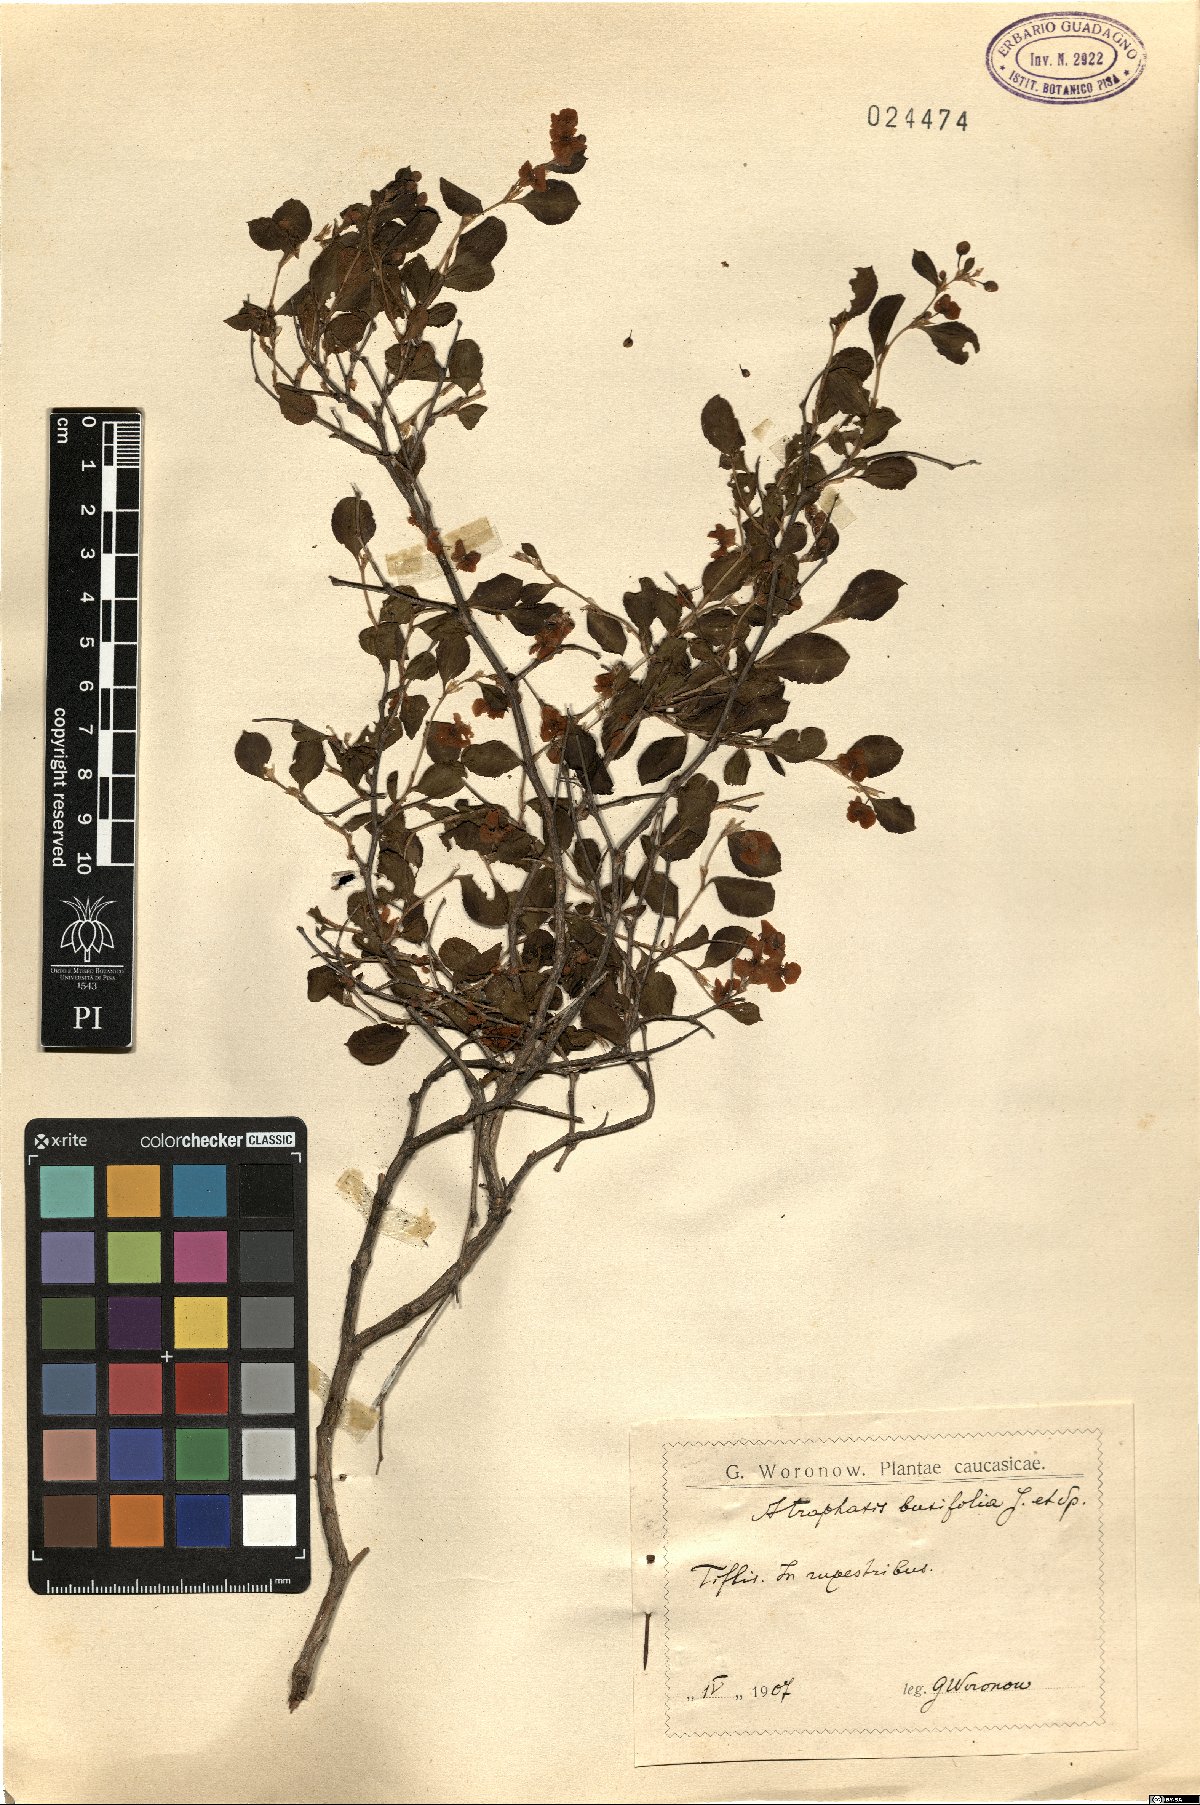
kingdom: Plantae
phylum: Tracheophyta
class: Magnoliopsida
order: Caryophyllales
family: Polygonaceae
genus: Atraphaxis
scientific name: Atraphaxis caucasica
